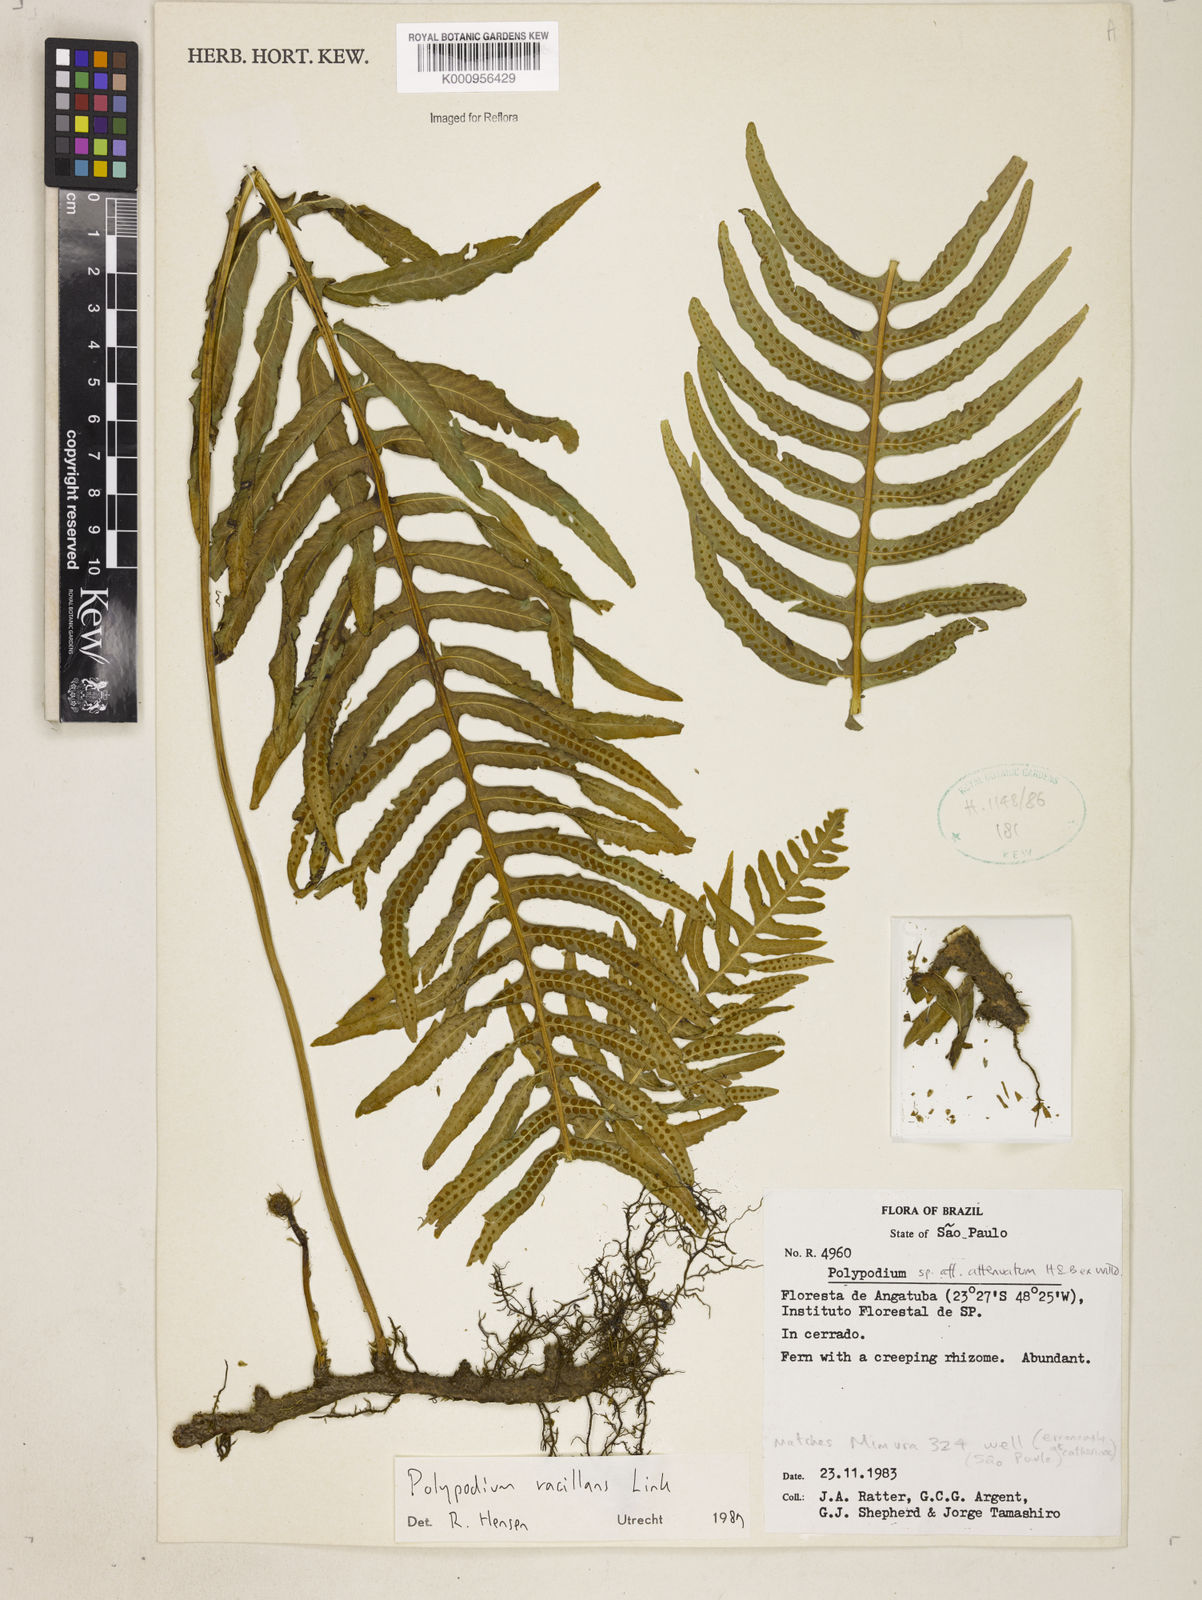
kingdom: Plantae
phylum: Tracheophyta
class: Polypodiopsida
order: Polypodiales
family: Polypodiaceae
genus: Serpocaulon
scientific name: Serpocaulon vacillans
